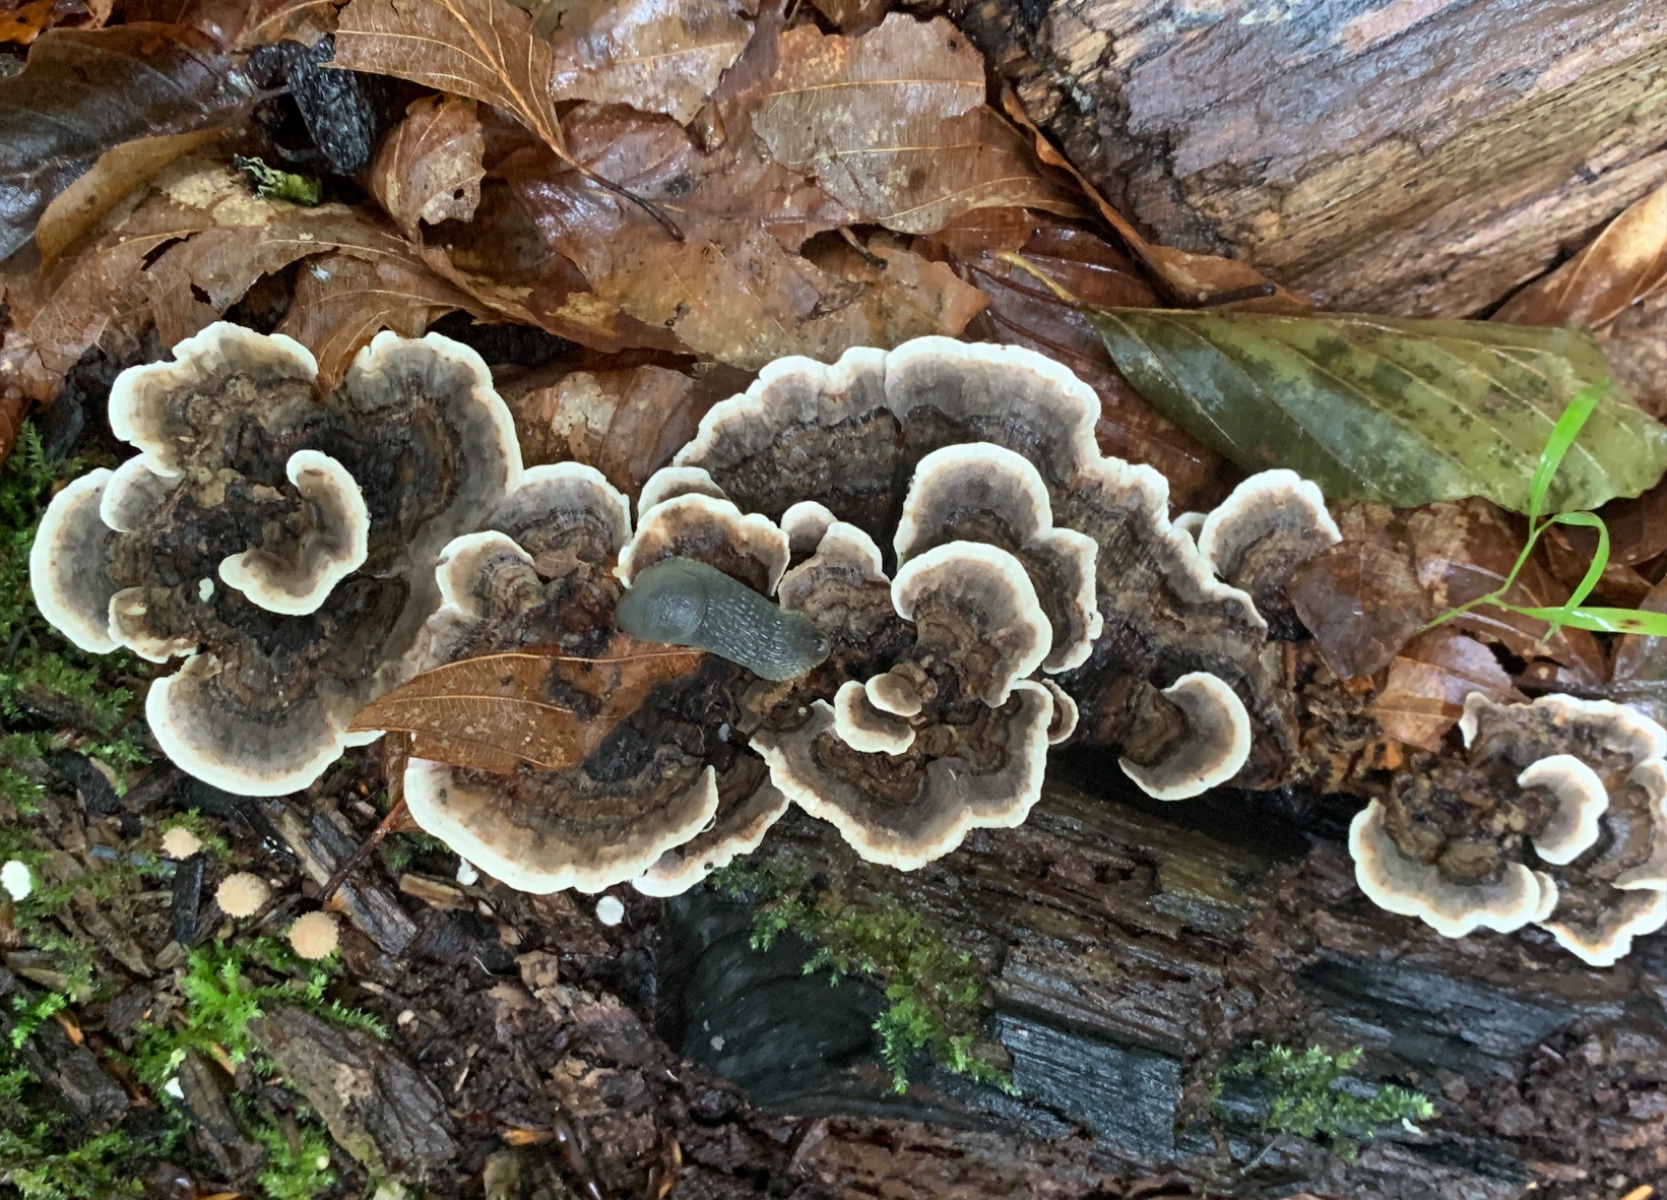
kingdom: Fungi
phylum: Basidiomycota
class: Agaricomycetes
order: Polyporales
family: Polyporaceae
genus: Trametes
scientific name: Trametes versicolor
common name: broget læderporesvamp
